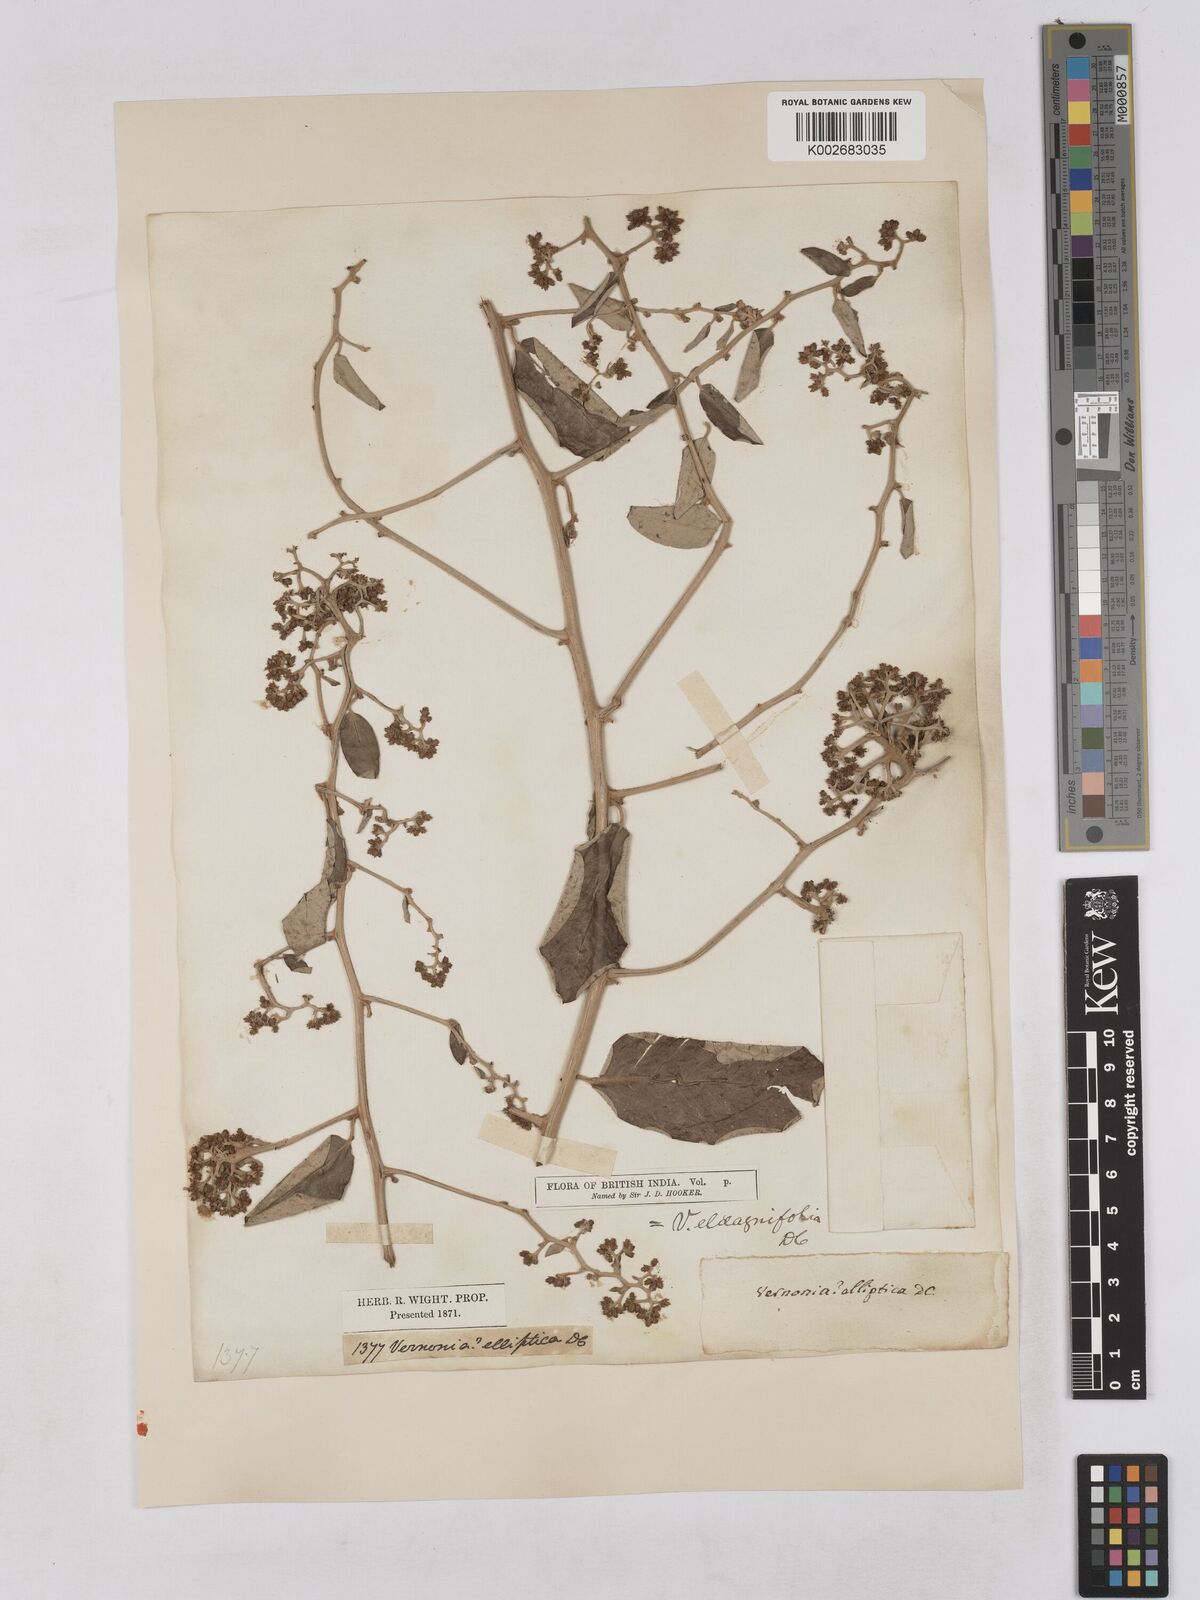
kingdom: Plantae
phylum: Tracheophyta
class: Magnoliopsida
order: Asterales
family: Asteraceae
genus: Tarlmounia
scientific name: Tarlmounia elliptica
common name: Kheua sa lot
